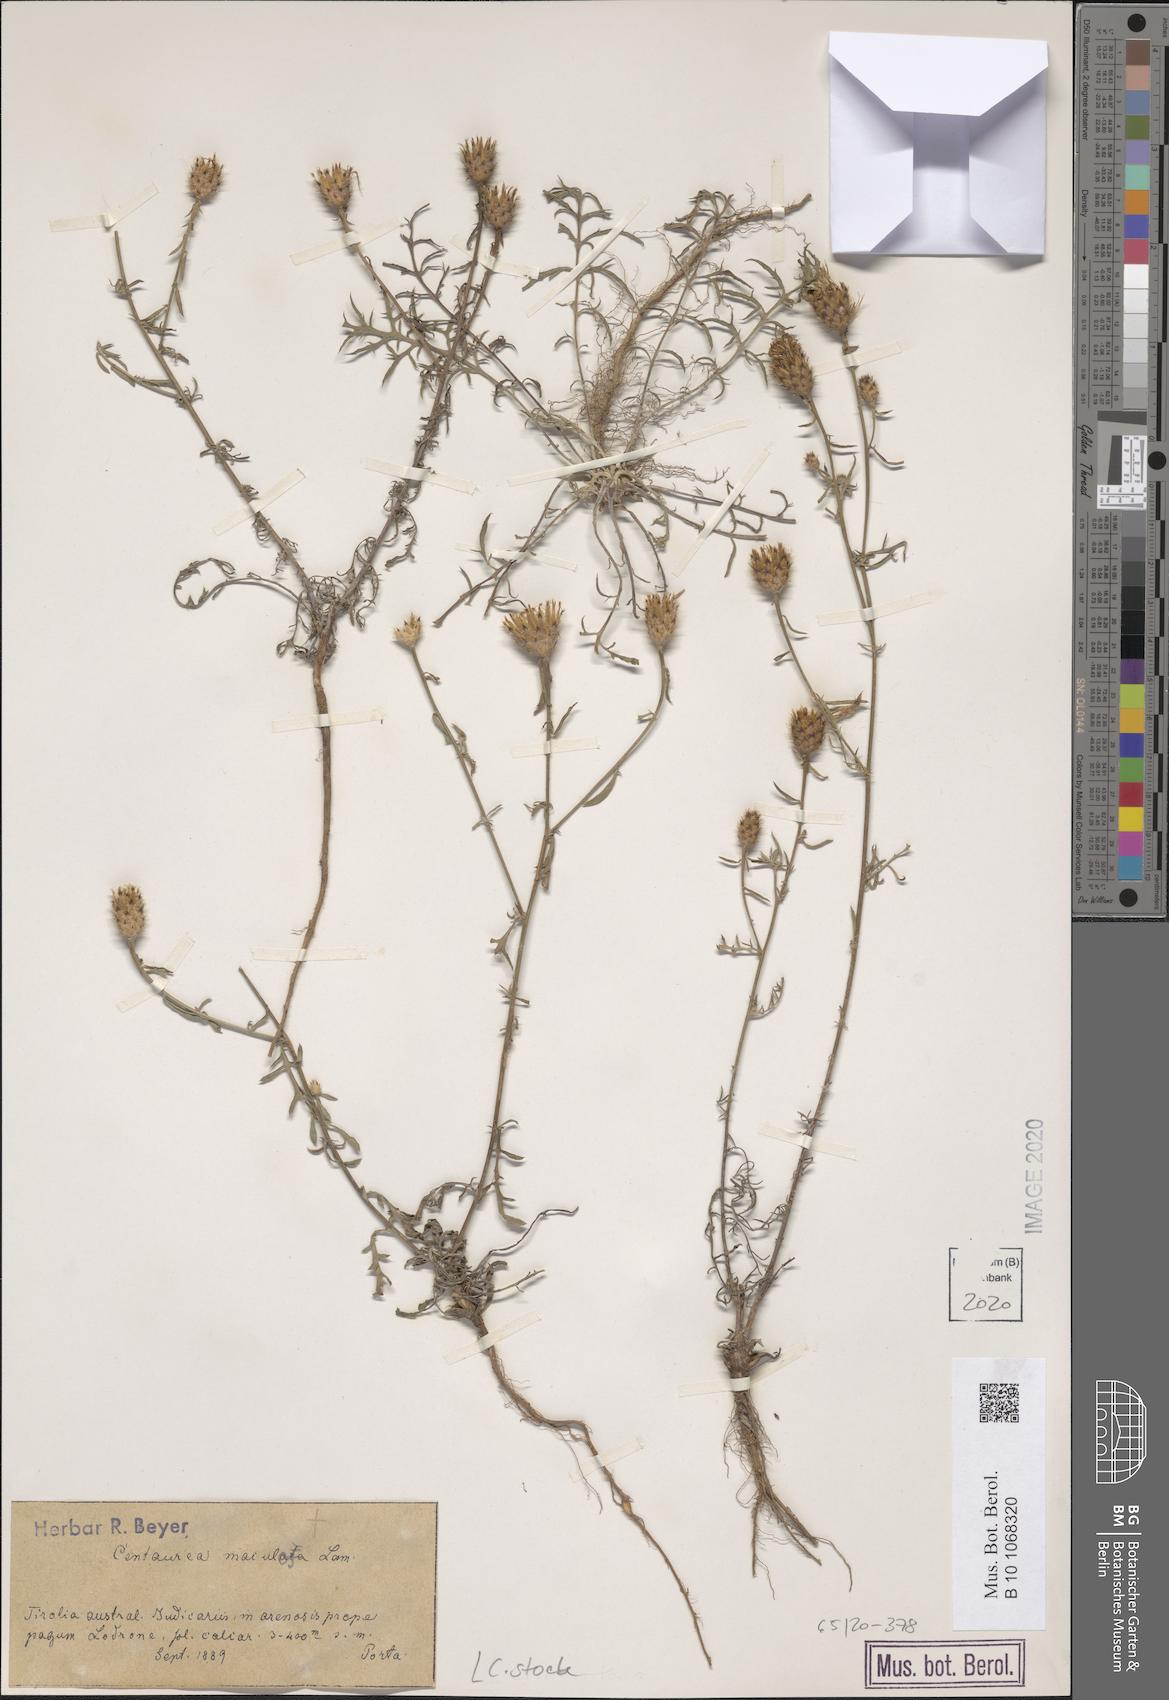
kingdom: Plantae
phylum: Tracheophyta
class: Magnoliopsida
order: Asterales
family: Asteraceae
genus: Centaurea
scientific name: Centaurea stoebe
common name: Spotted knapweed
